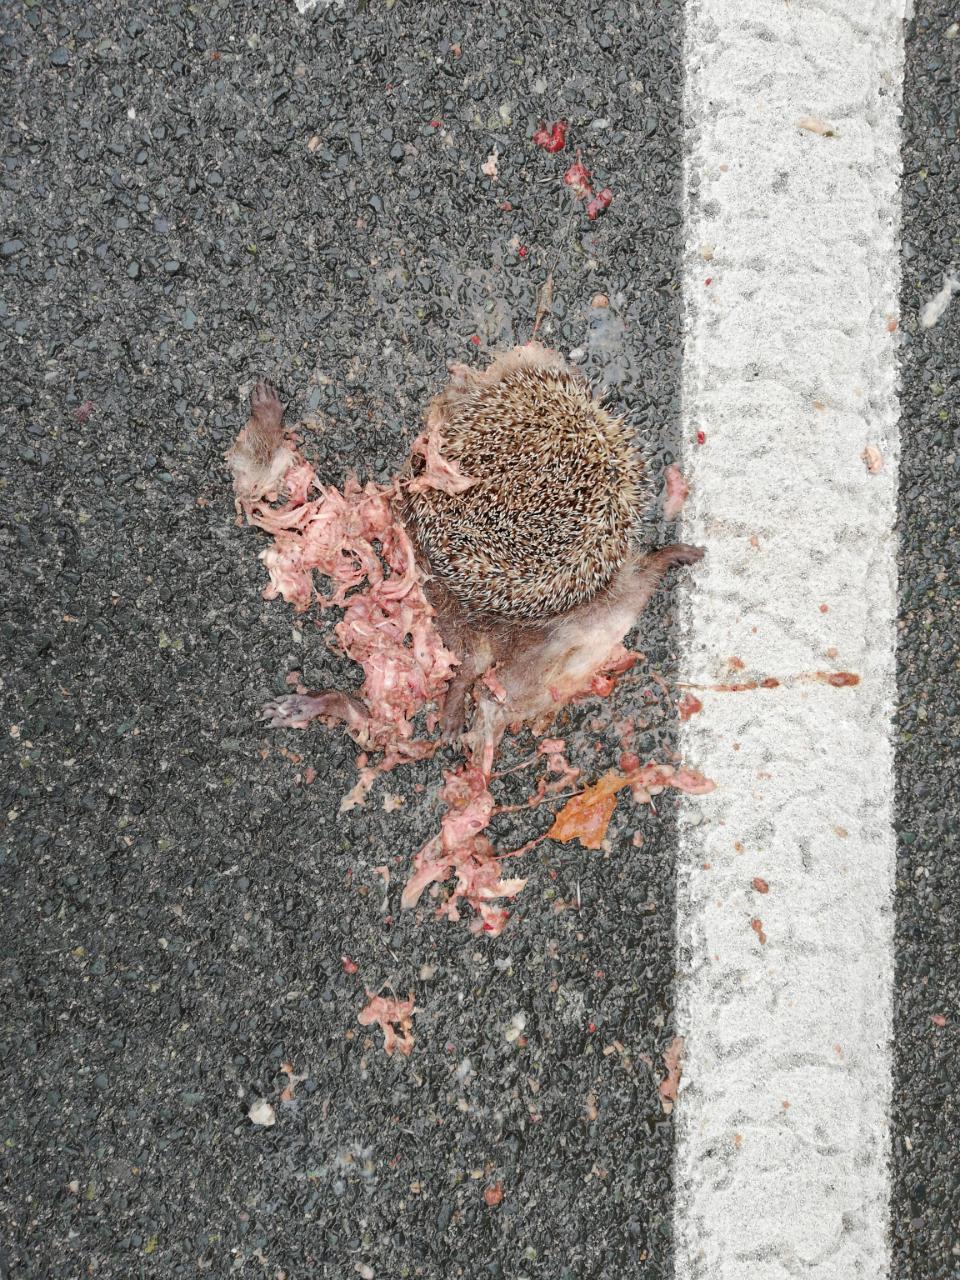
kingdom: Animalia
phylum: Chordata
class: Mammalia
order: Erinaceomorpha
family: Erinaceidae
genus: Erinaceus
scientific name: Erinaceus
